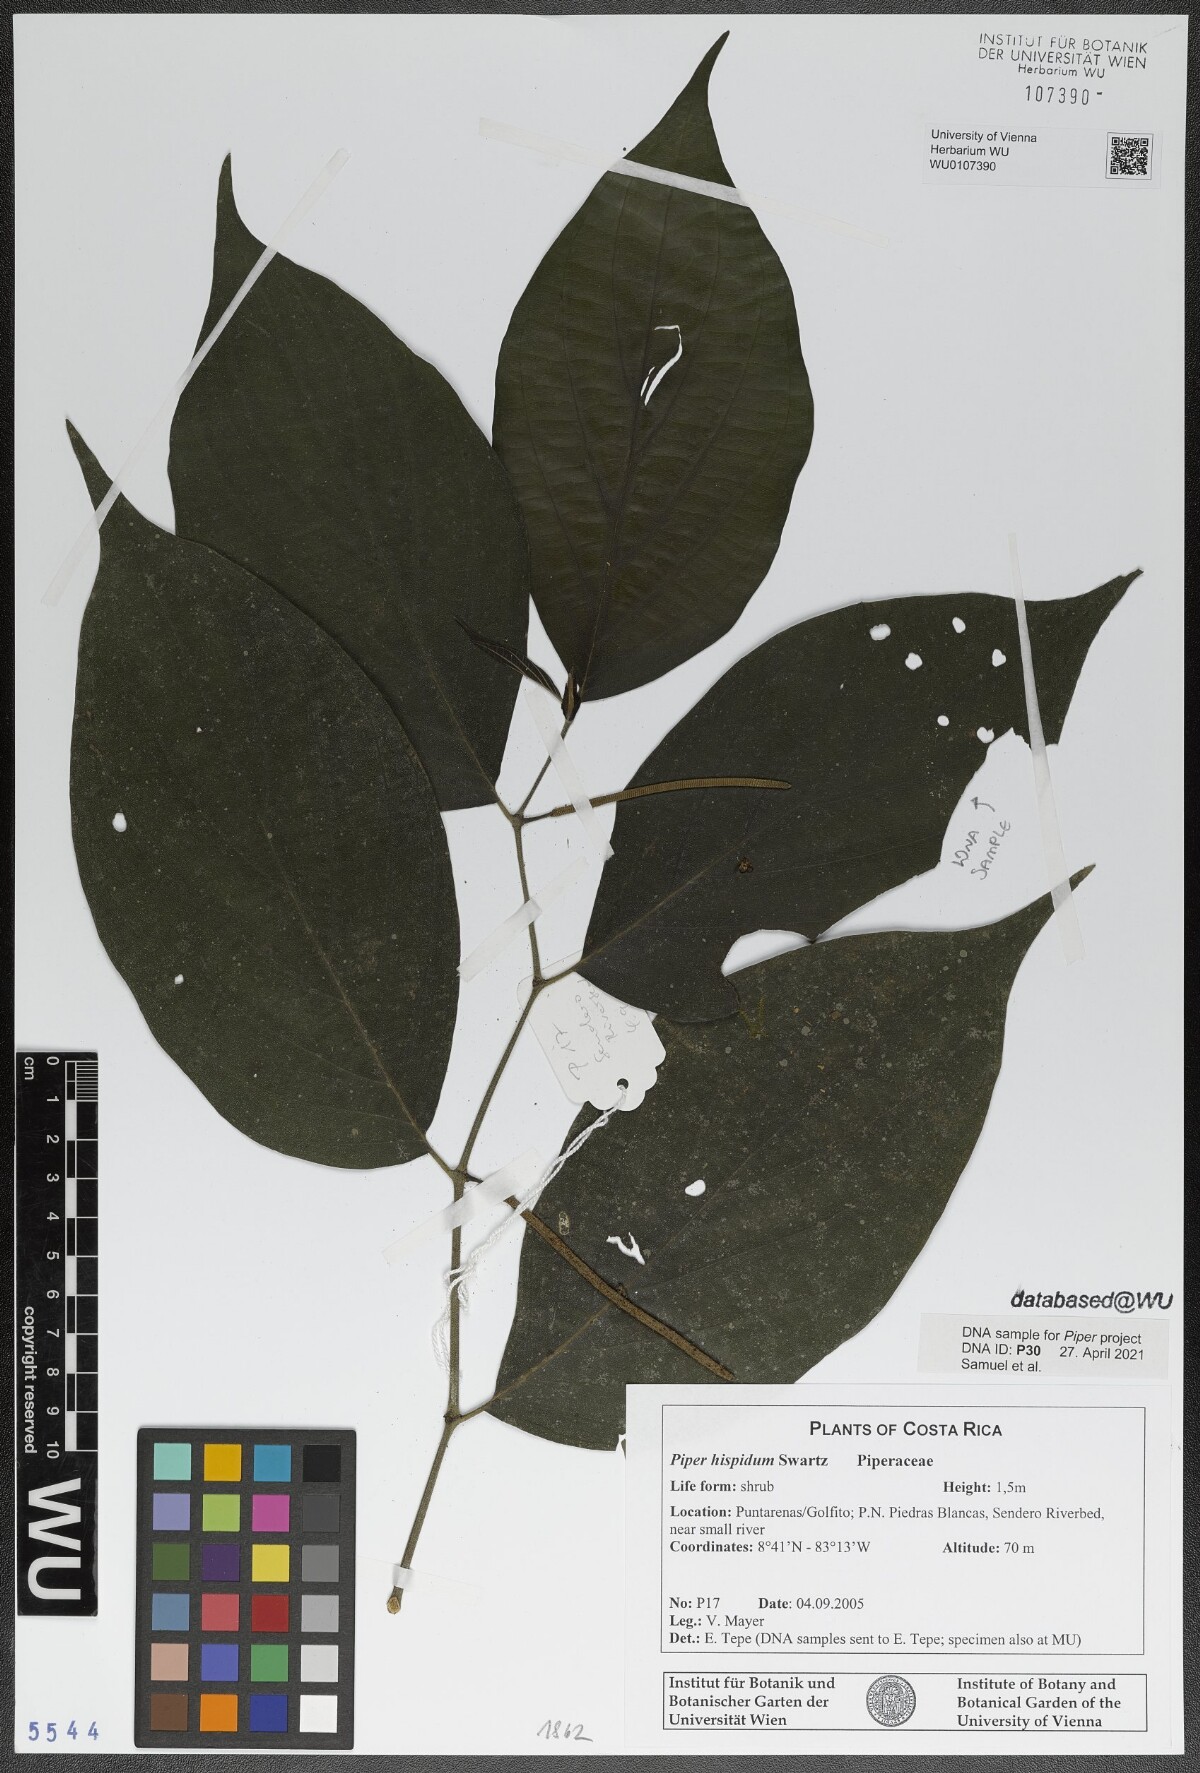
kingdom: Plantae
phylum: Tracheophyta
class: Magnoliopsida
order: Piperales
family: Piperaceae
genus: Piper
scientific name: Piper hispidum
